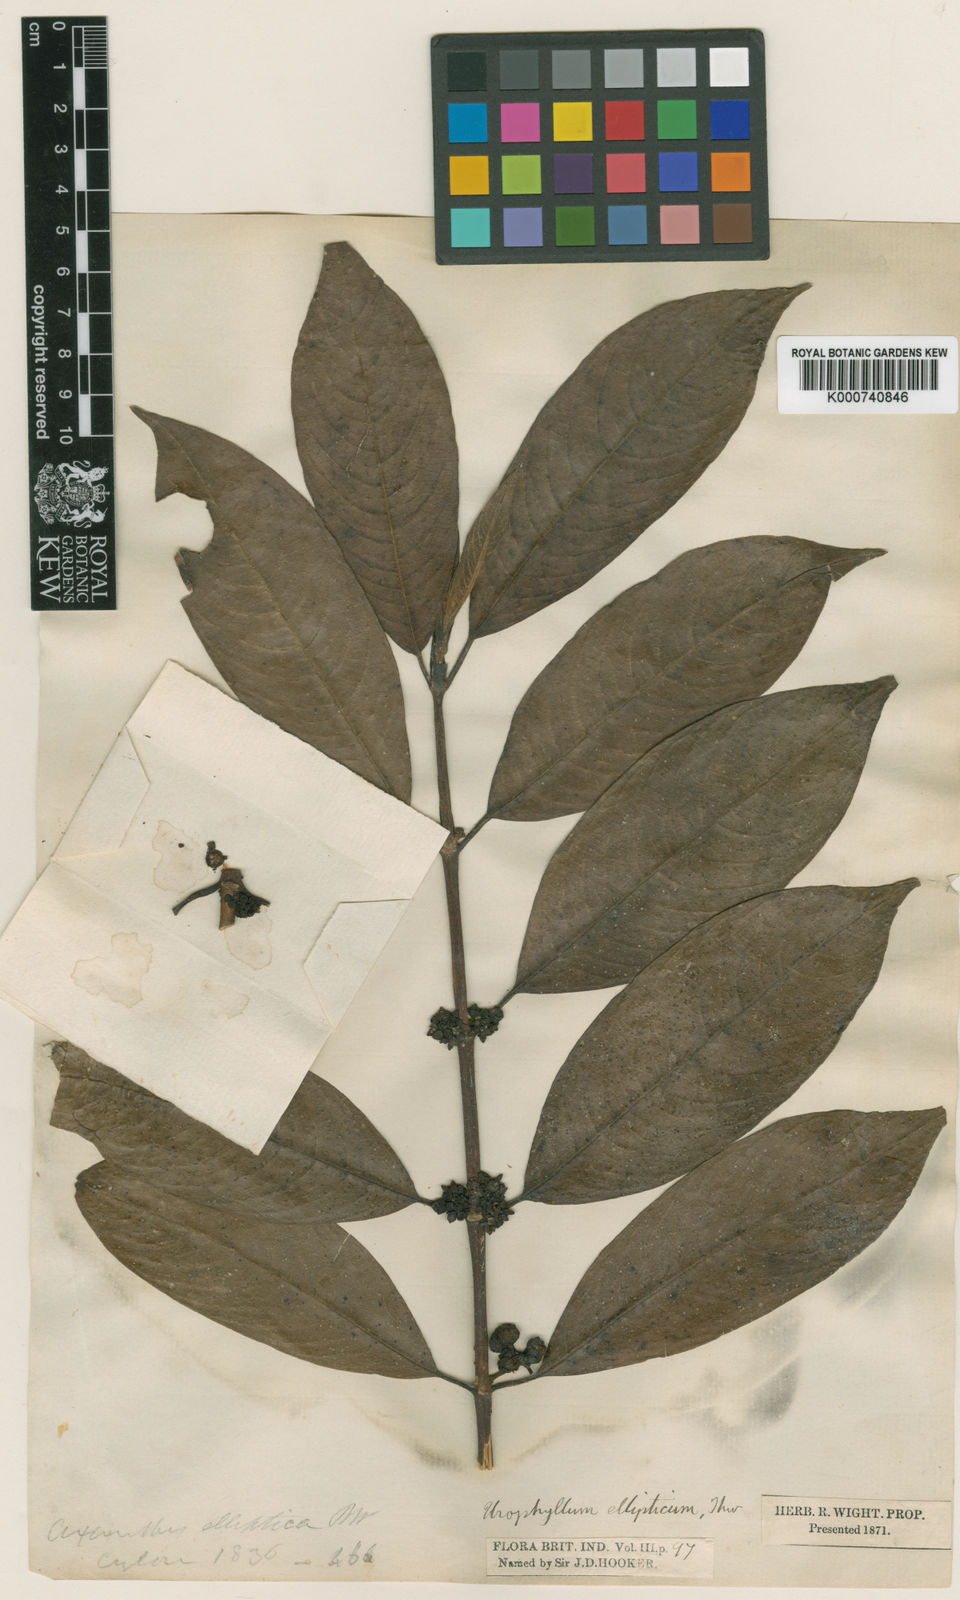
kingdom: Plantae
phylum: Tracheophyta
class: Magnoliopsida
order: Gentianales
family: Rubiaceae
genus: Urophyllum
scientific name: Urophyllum ellipticum
